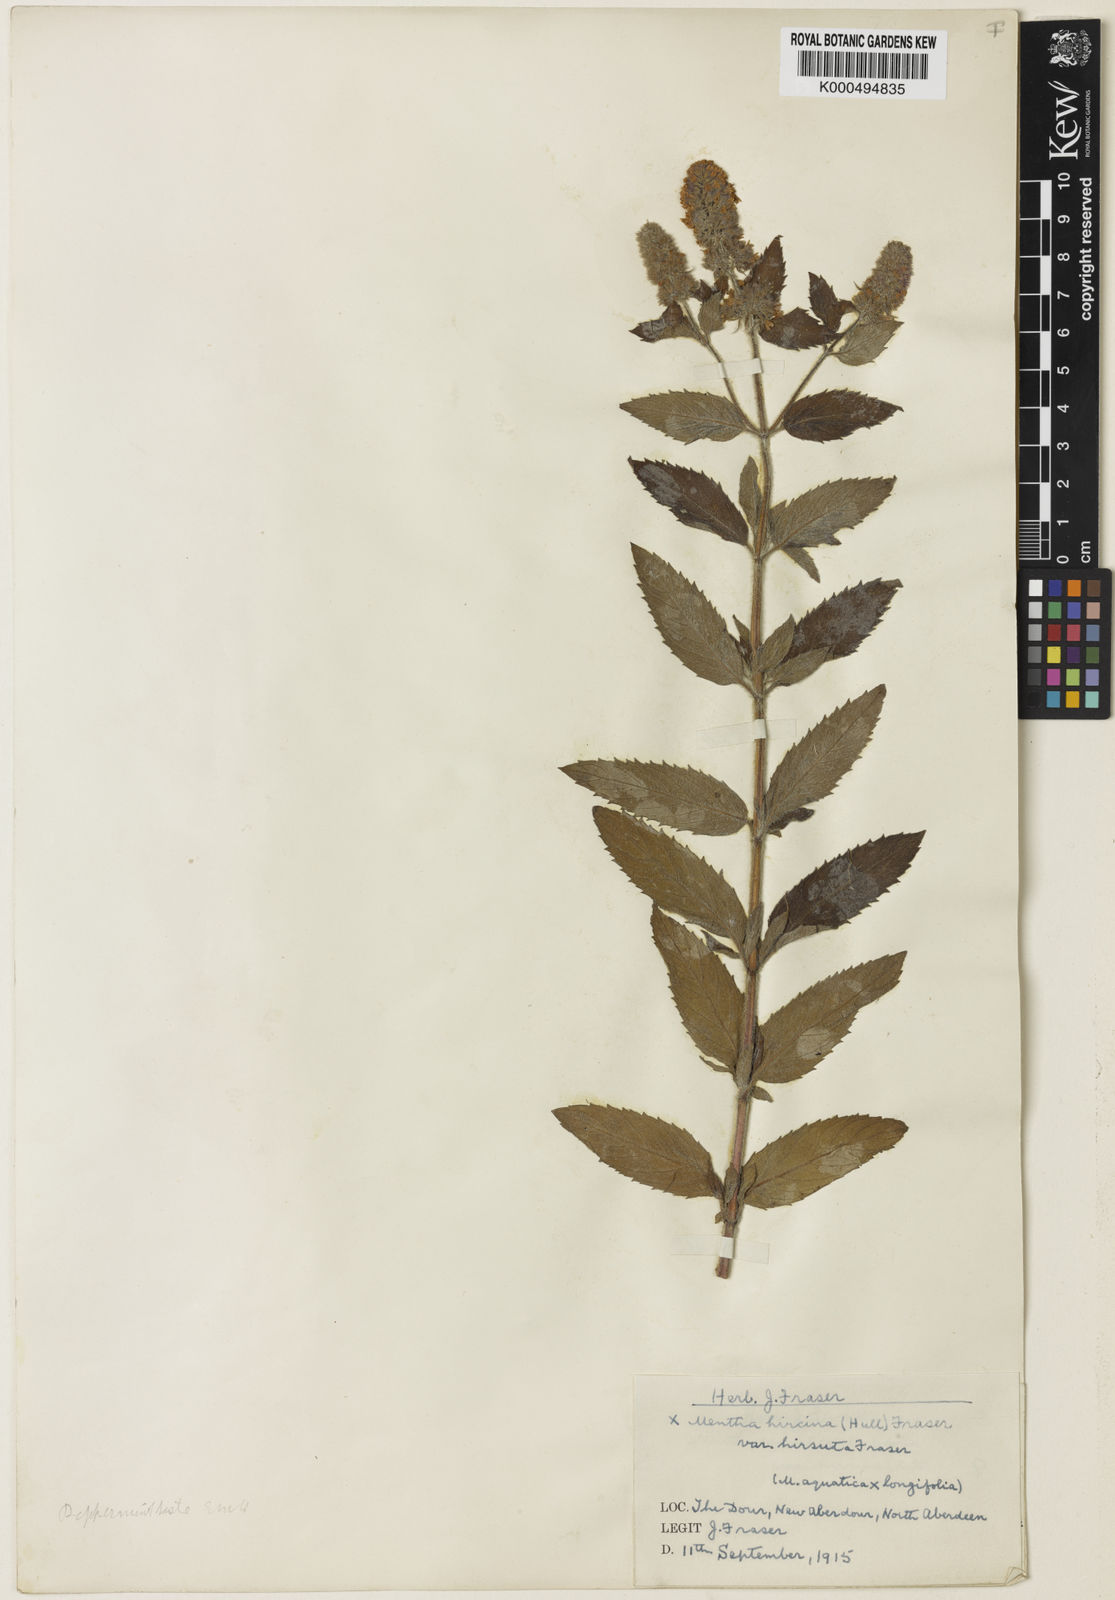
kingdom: Plantae
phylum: Tracheophyta
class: Magnoliopsida
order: Lamiales
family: Lamiaceae
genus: Mentha
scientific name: Mentha piperita
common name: Peppermint
